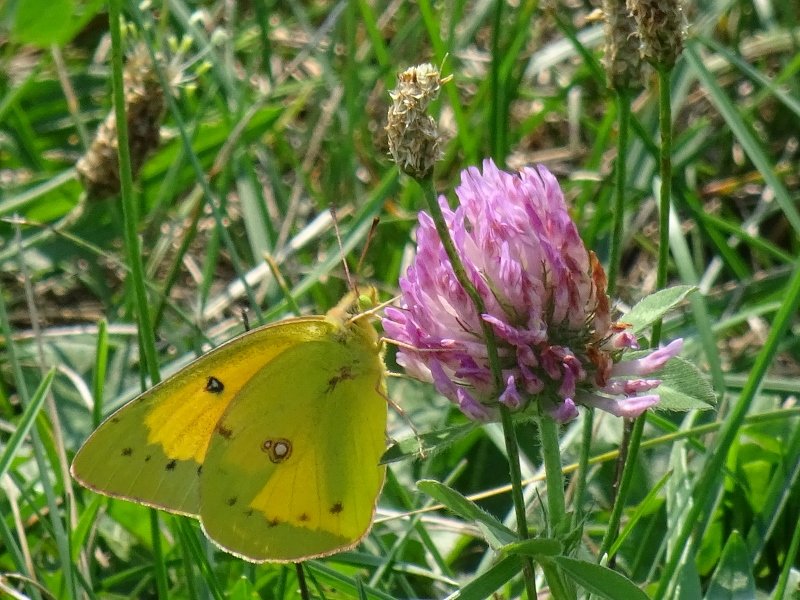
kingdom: Animalia
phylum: Arthropoda
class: Insecta
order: Lepidoptera
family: Pieridae
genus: Colias
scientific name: Colias philodice
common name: Clouded Sulphur
